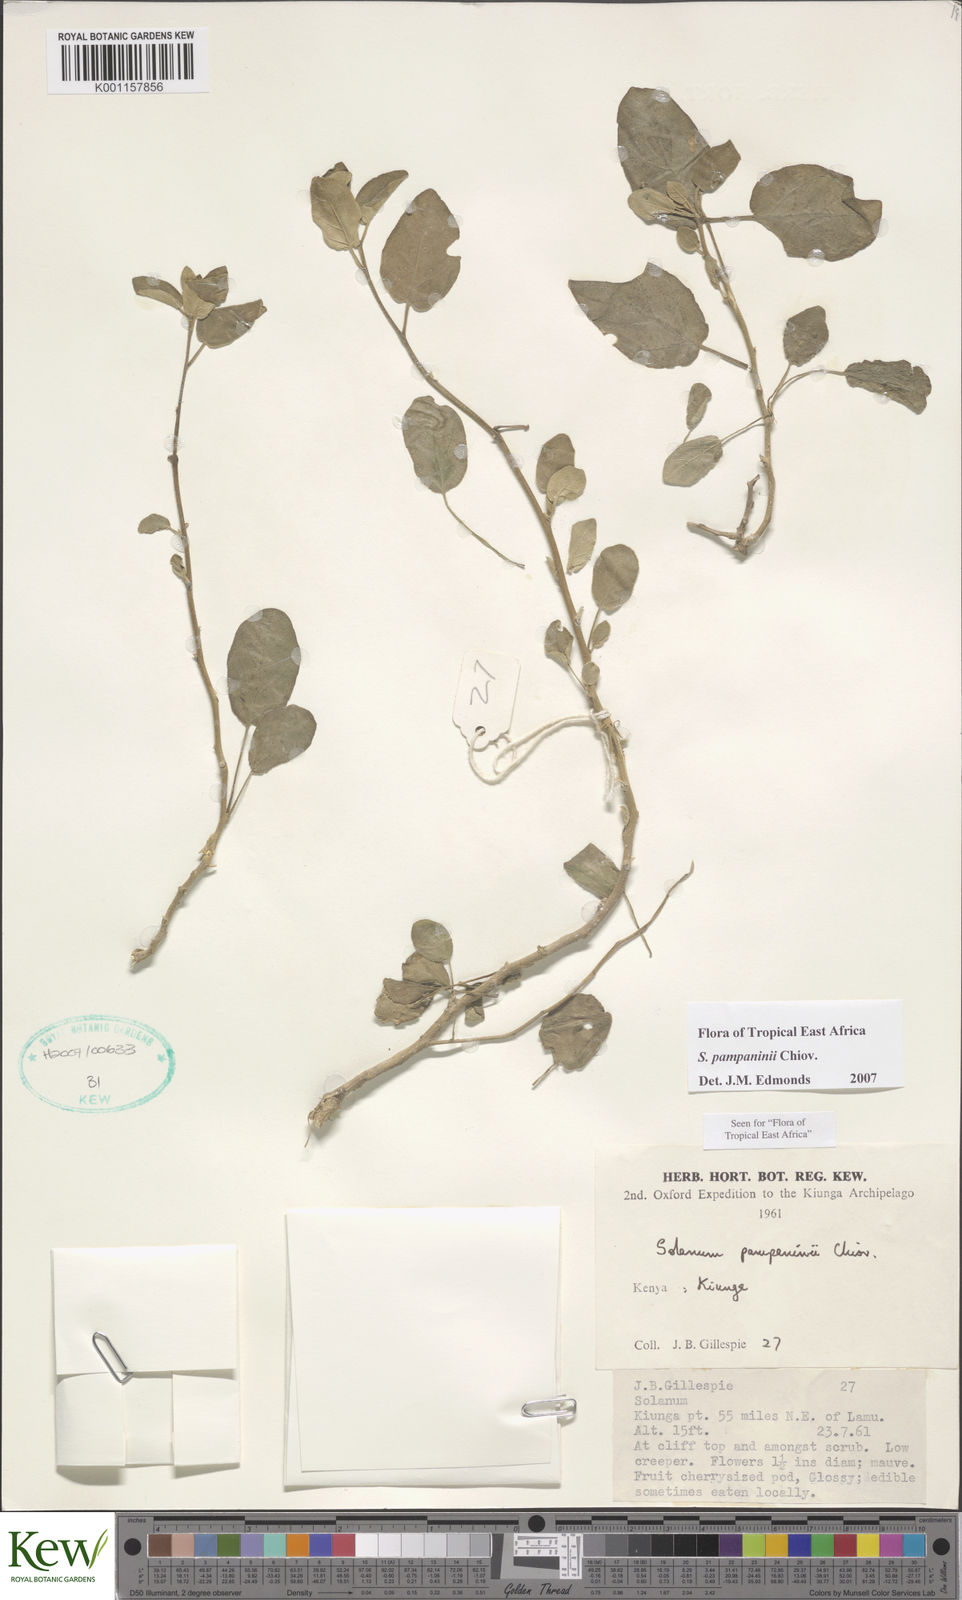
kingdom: Plantae
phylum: Tracheophyta
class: Magnoliopsida
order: Solanales
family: Solanaceae
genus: Solanum
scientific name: Solanum pampaninii
